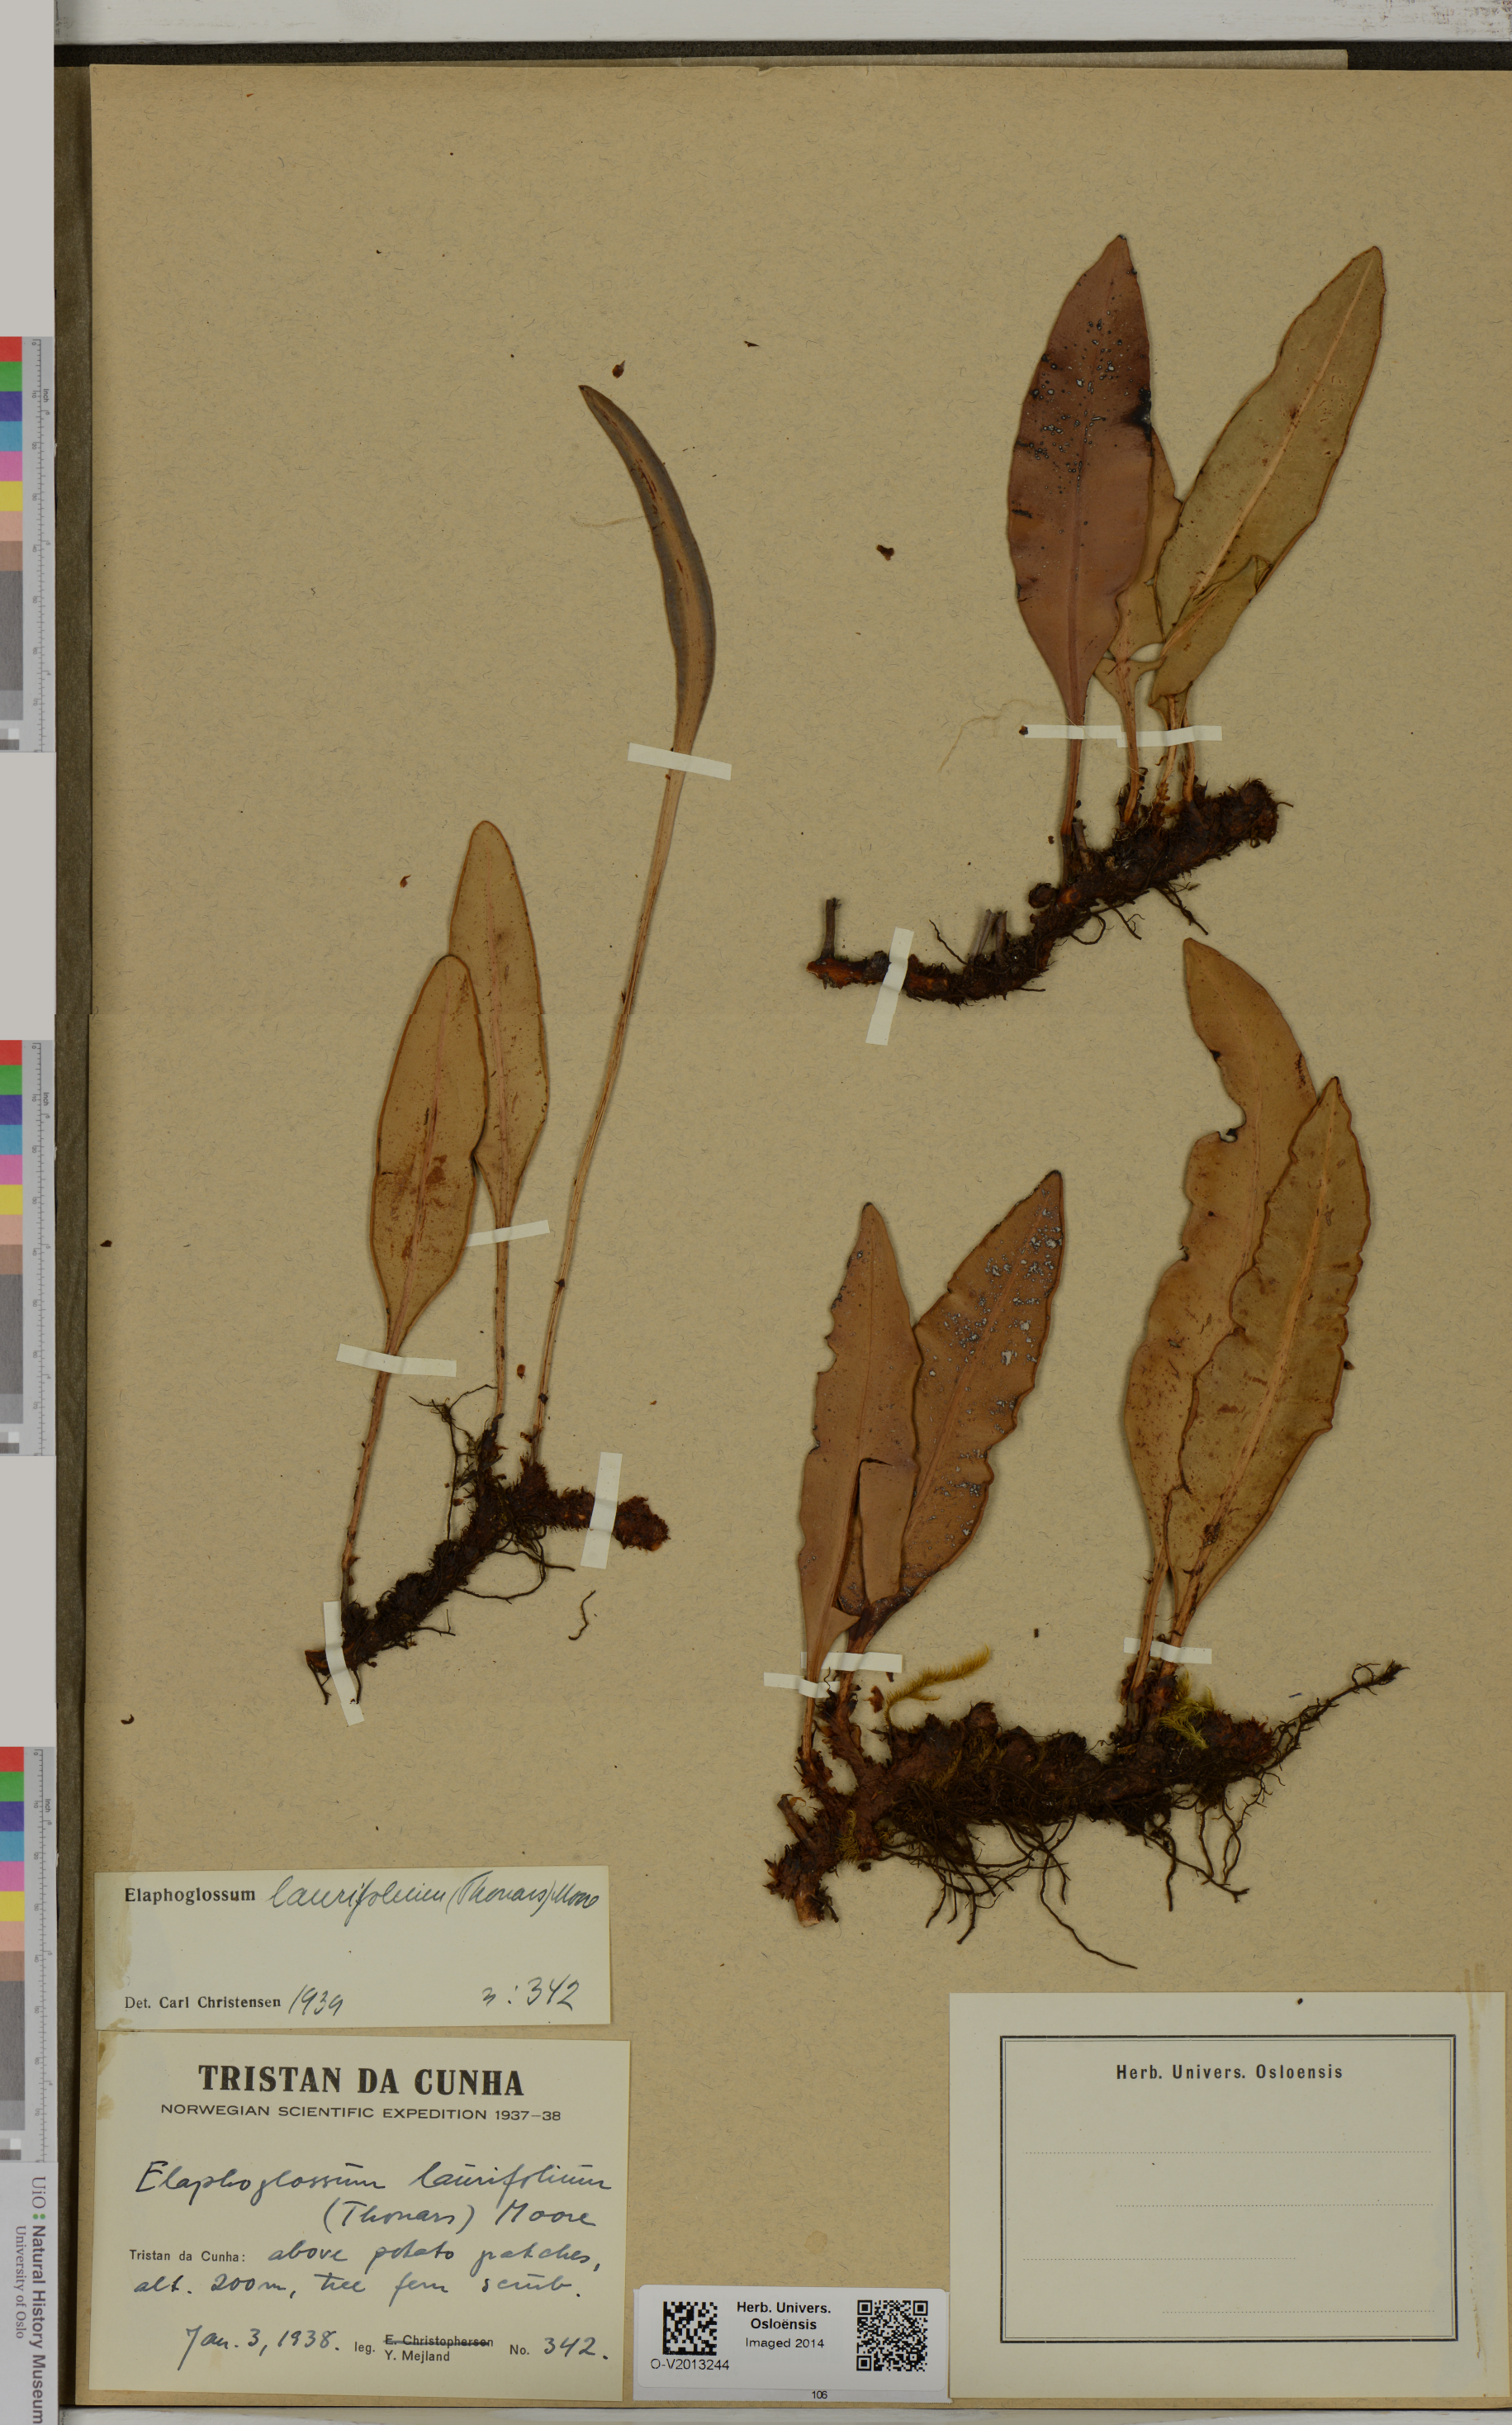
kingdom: Plantae
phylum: Tracheophyta
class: Polypodiopsida
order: Polypodiales
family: Dryopteridaceae
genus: Elaphoglossum
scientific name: Elaphoglossum laurifolium
